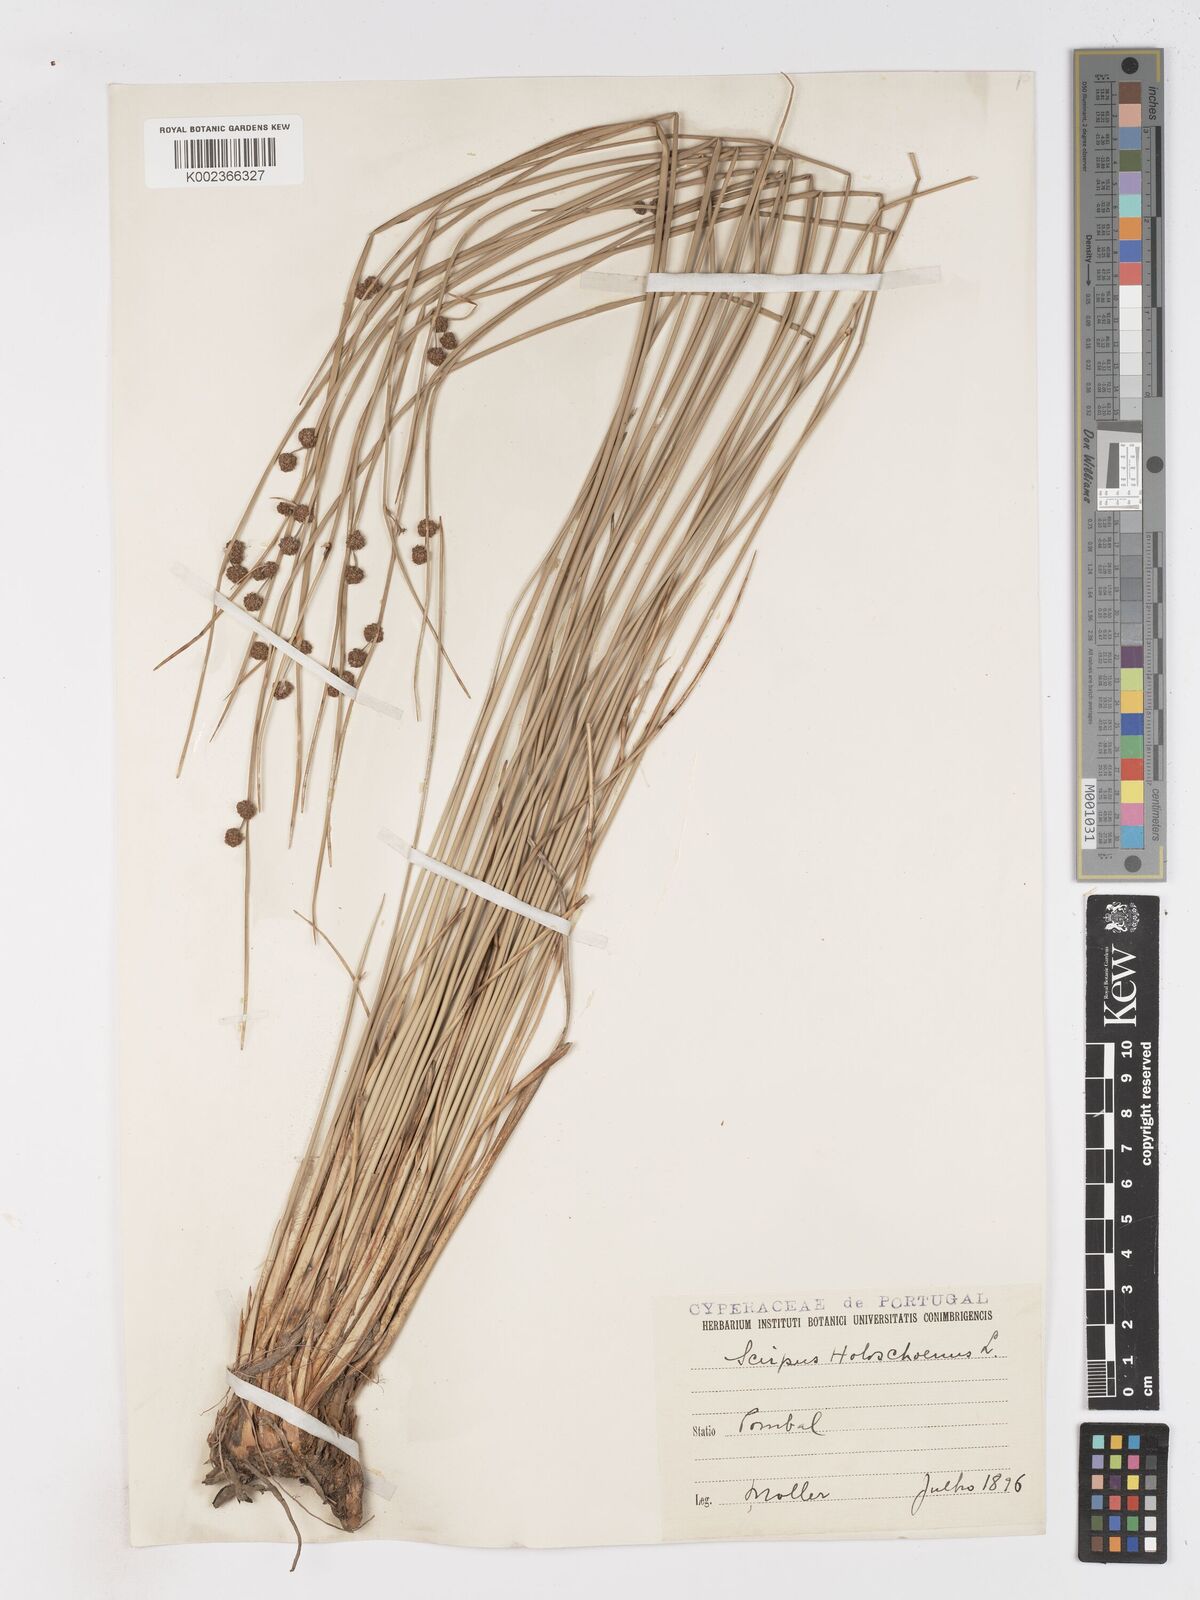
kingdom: Plantae
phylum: Tracheophyta
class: Liliopsida
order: Poales
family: Cyperaceae
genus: Scirpoides
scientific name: Scirpoides holoschoenus
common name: Round-headed club-rush
